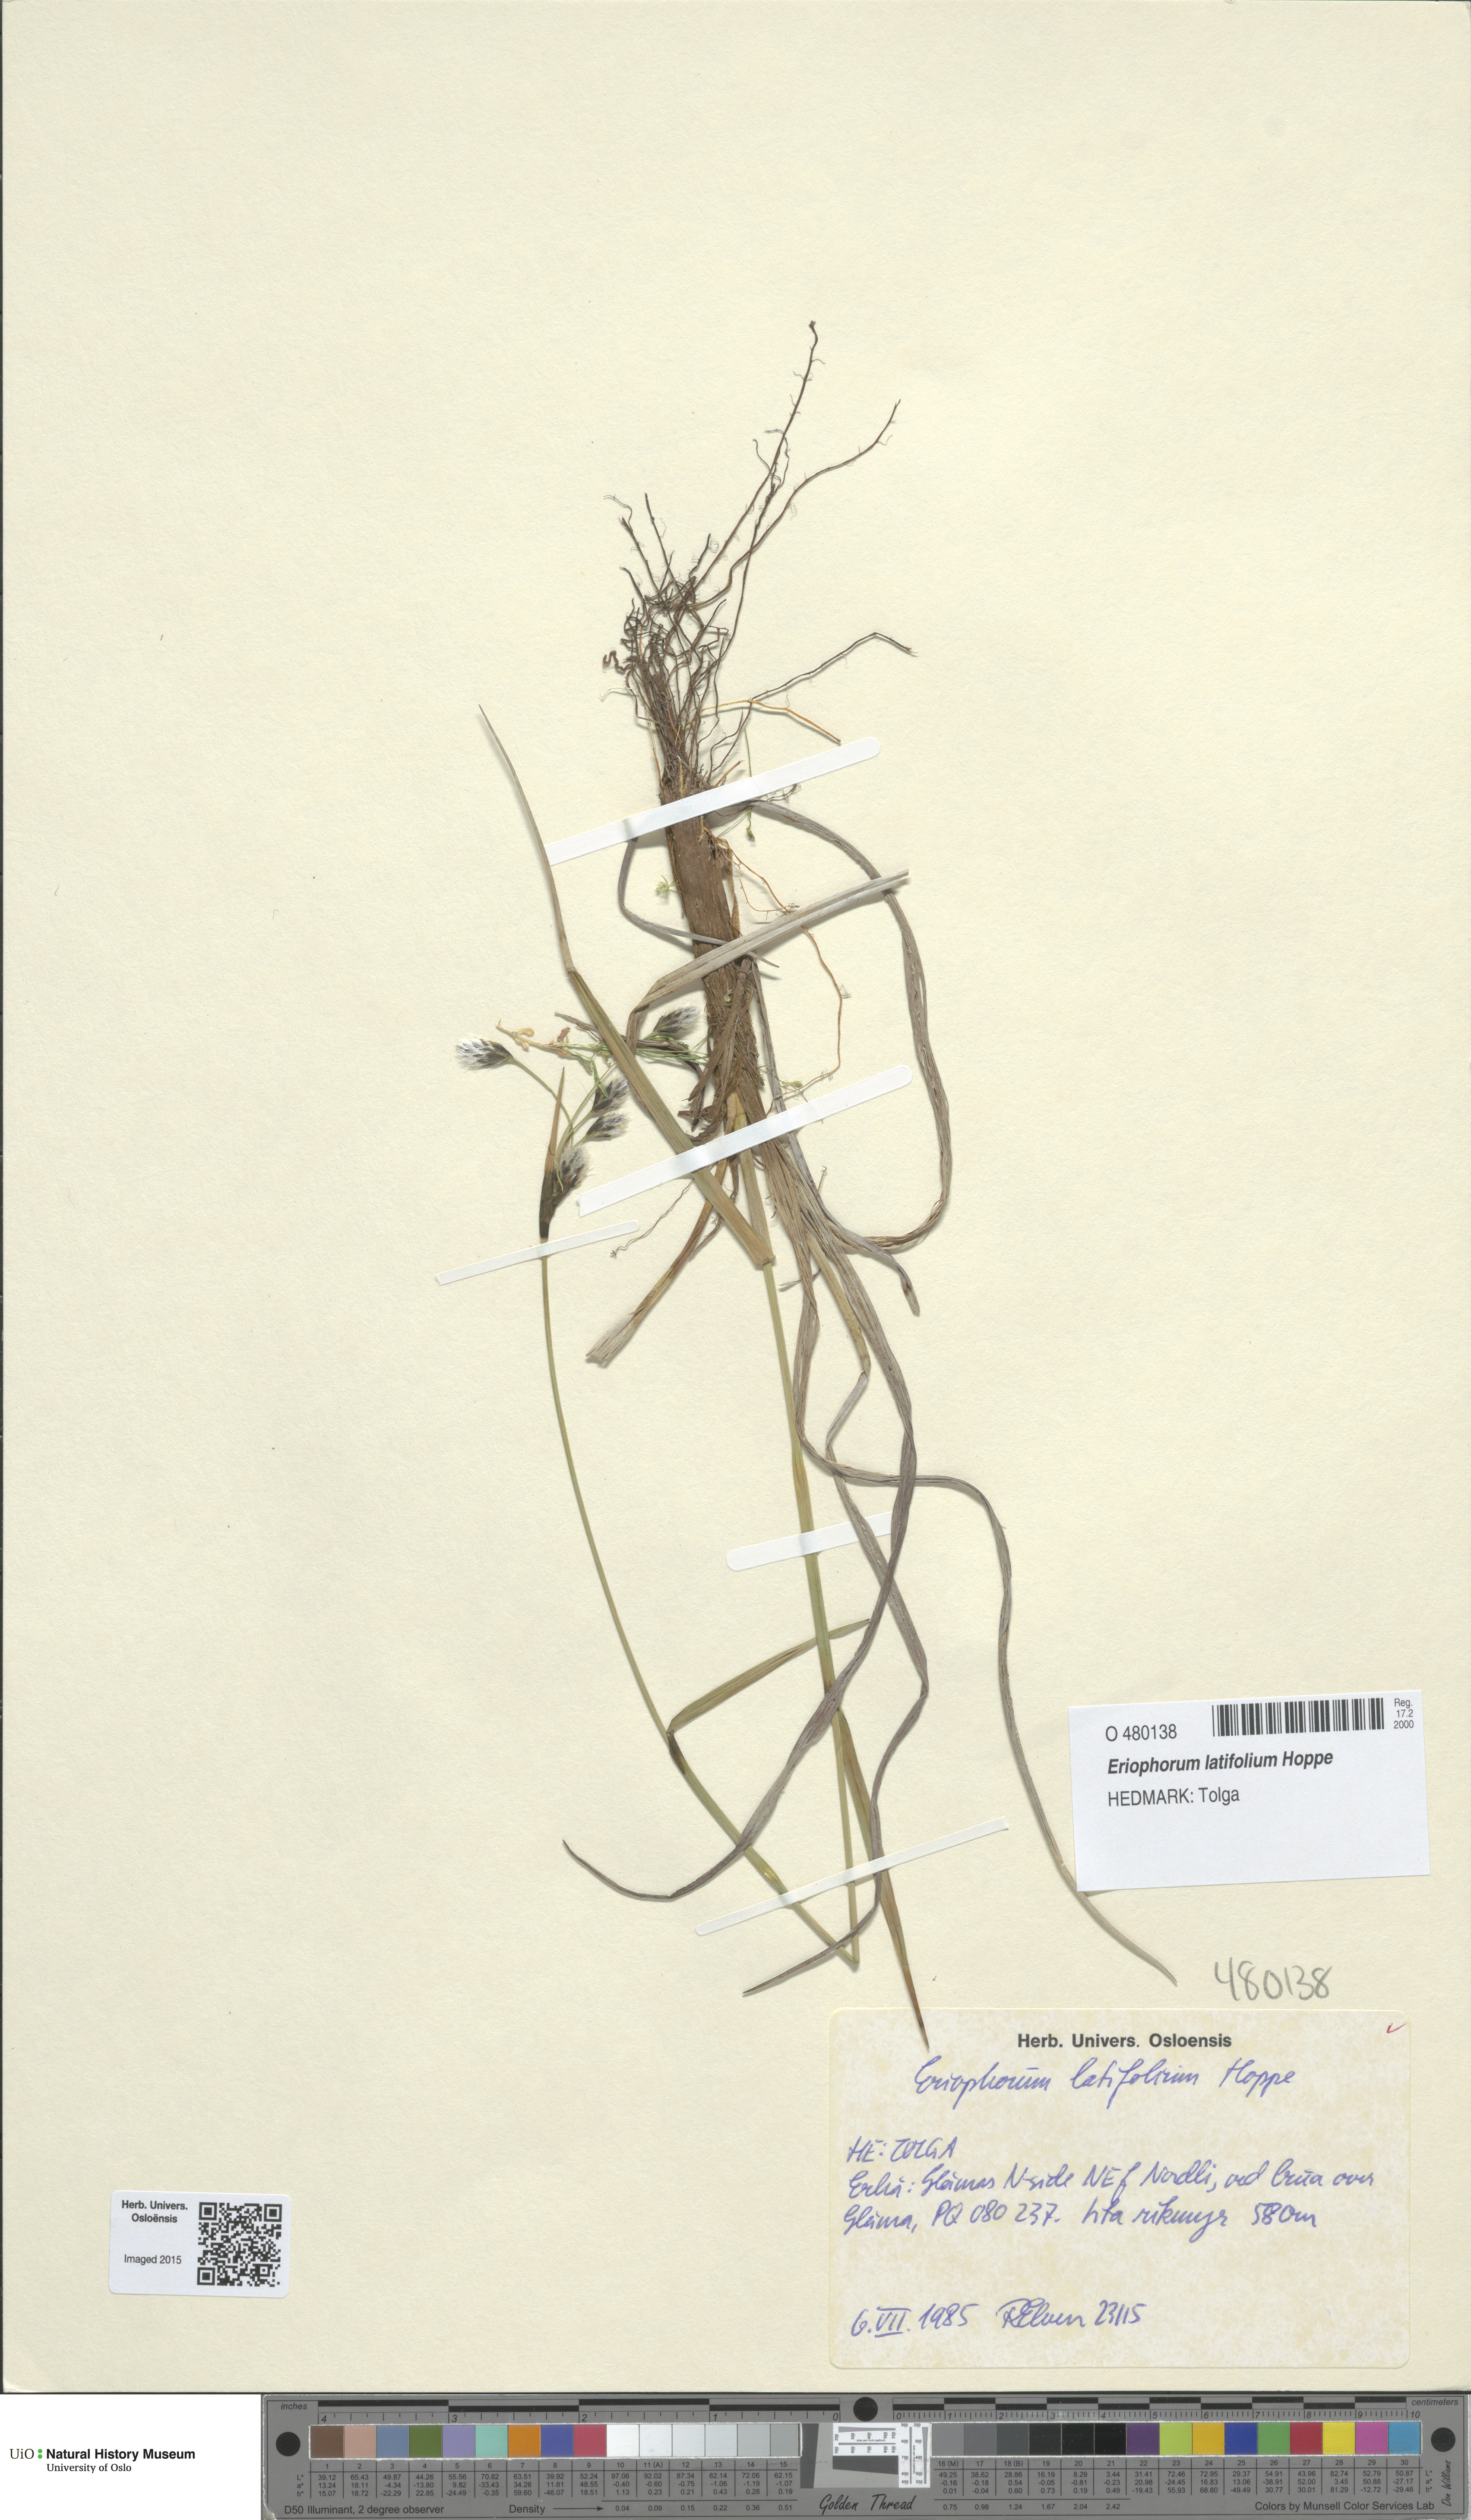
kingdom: Plantae
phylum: Tracheophyta
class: Liliopsida
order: Poales
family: Cyperaceae
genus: Eriophorum
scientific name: Eriophorum latifolium
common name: Broad-leaved cottongrass
